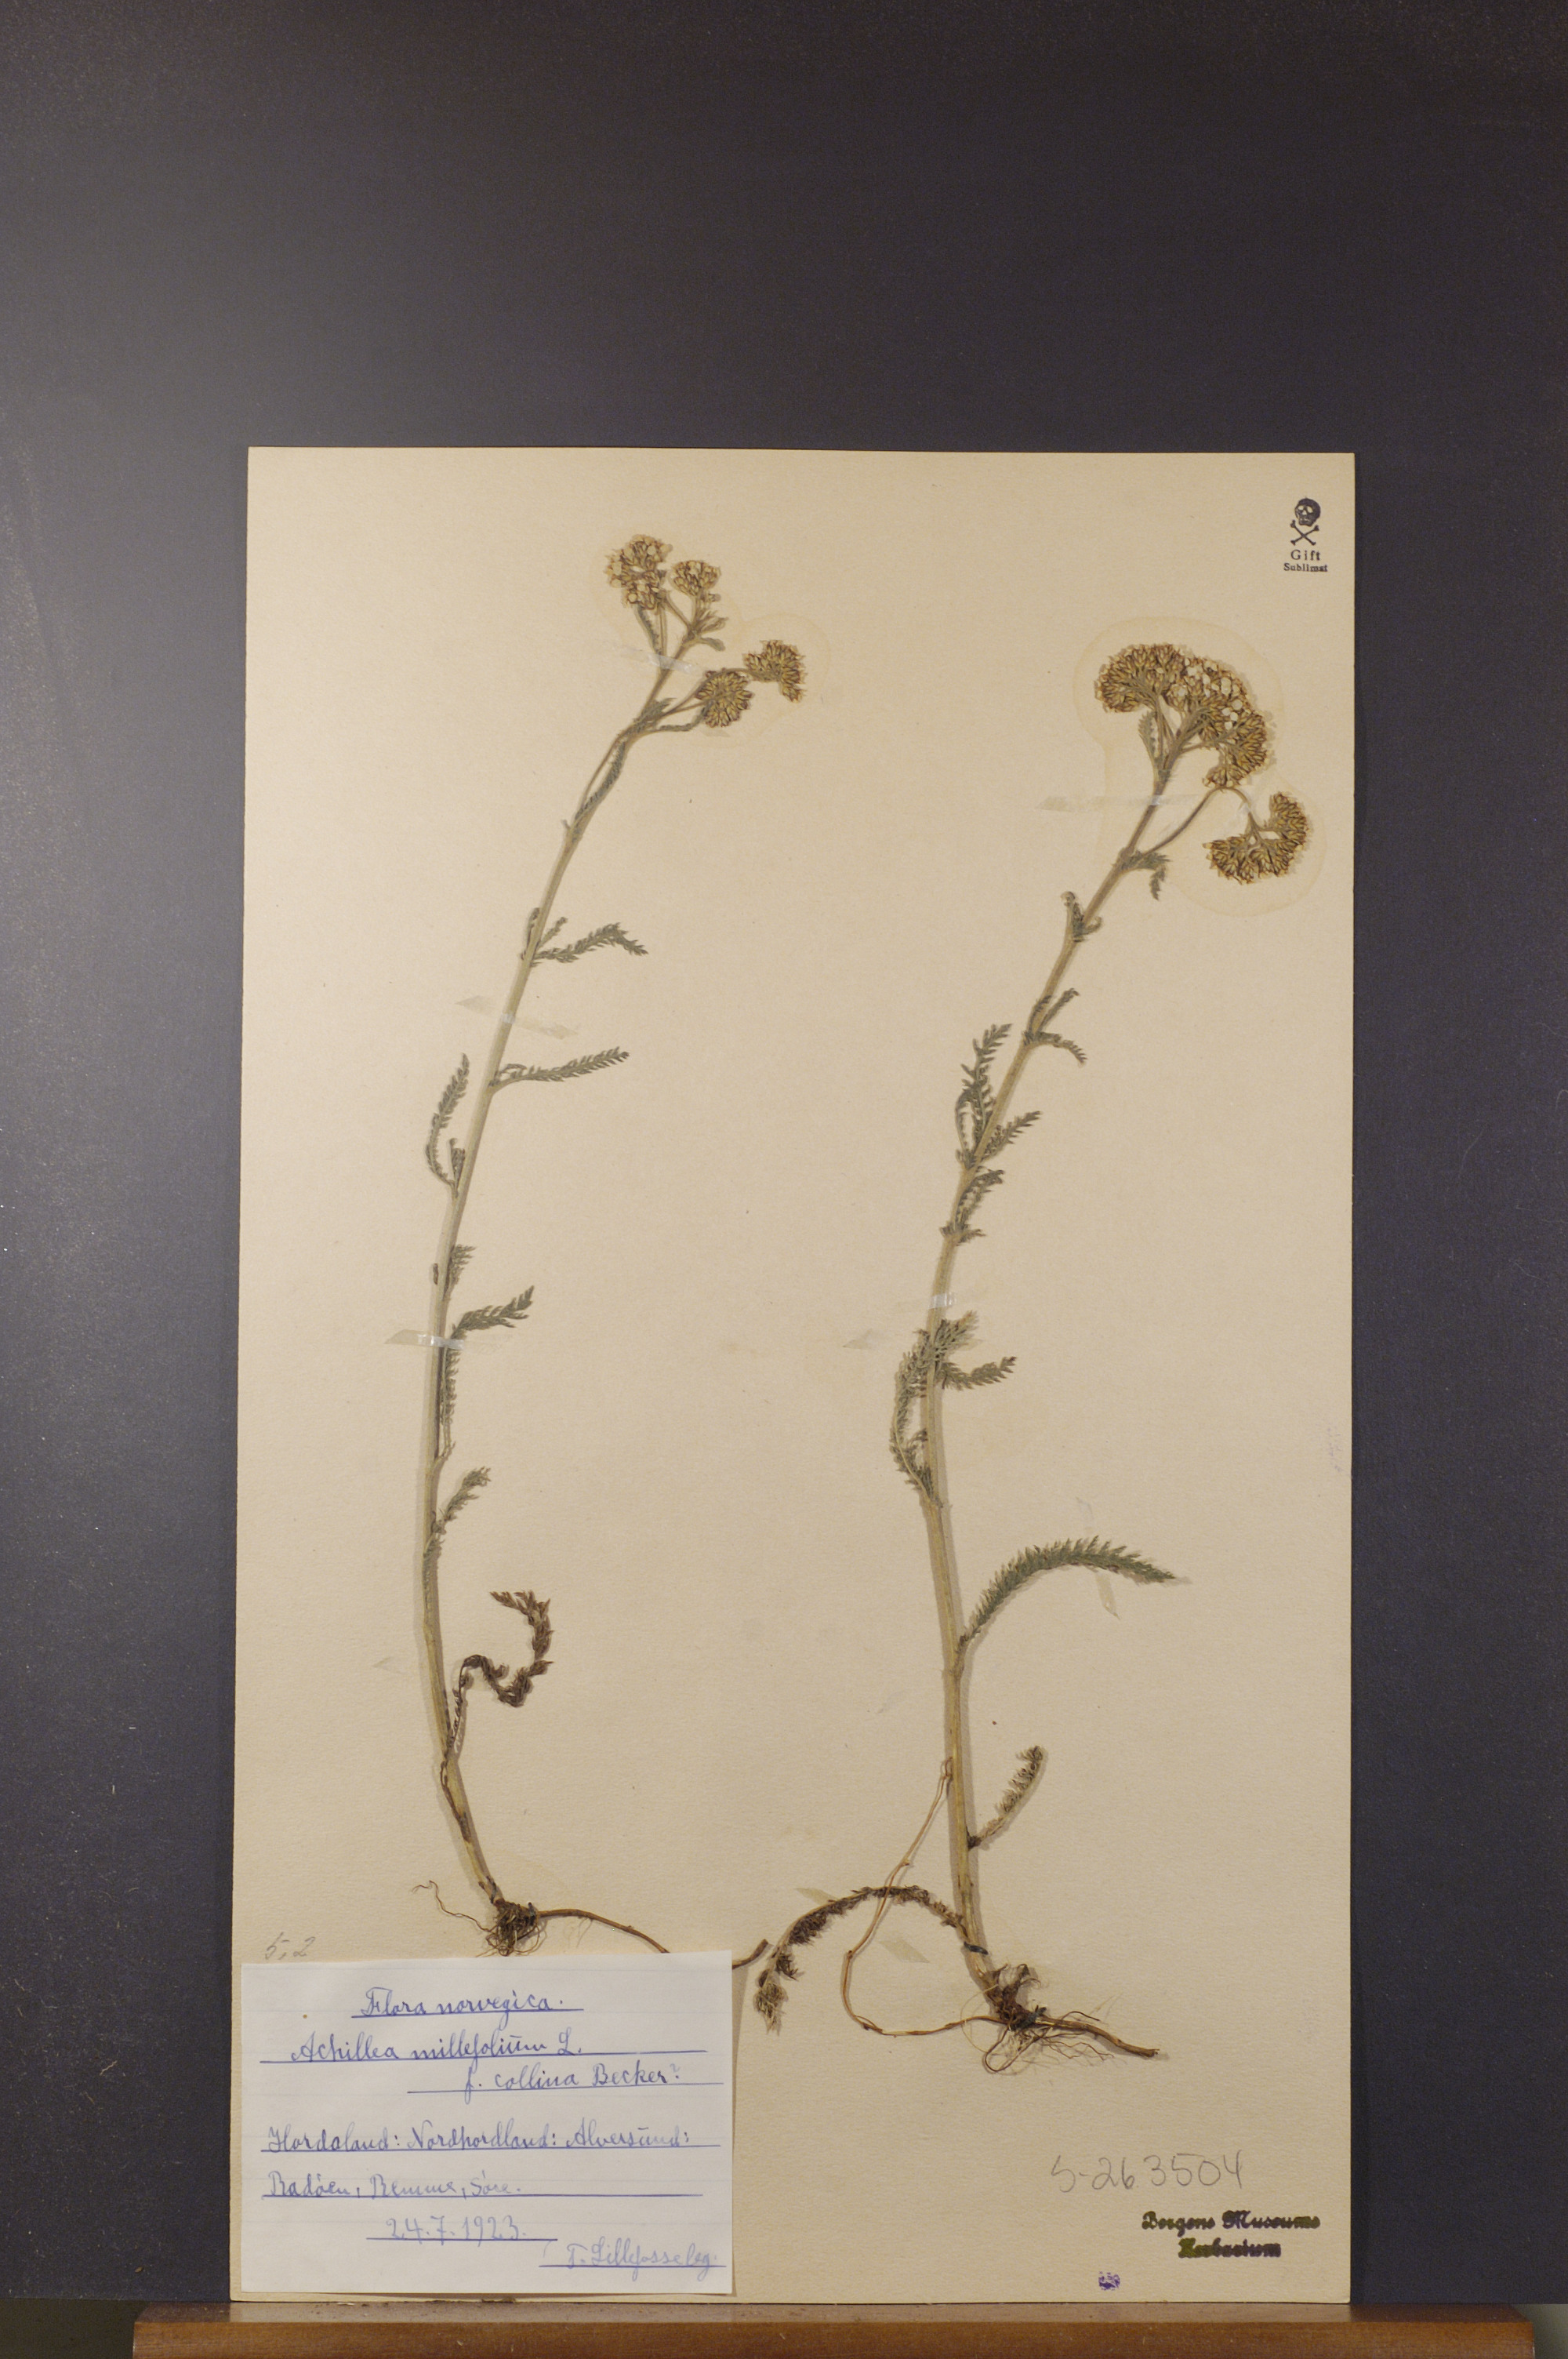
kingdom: Plantae
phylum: Tracheophyta
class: Magnoliopsida
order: Asterales
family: Asteraceae
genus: Achillea
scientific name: Achillea millefolium
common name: Yarrow
